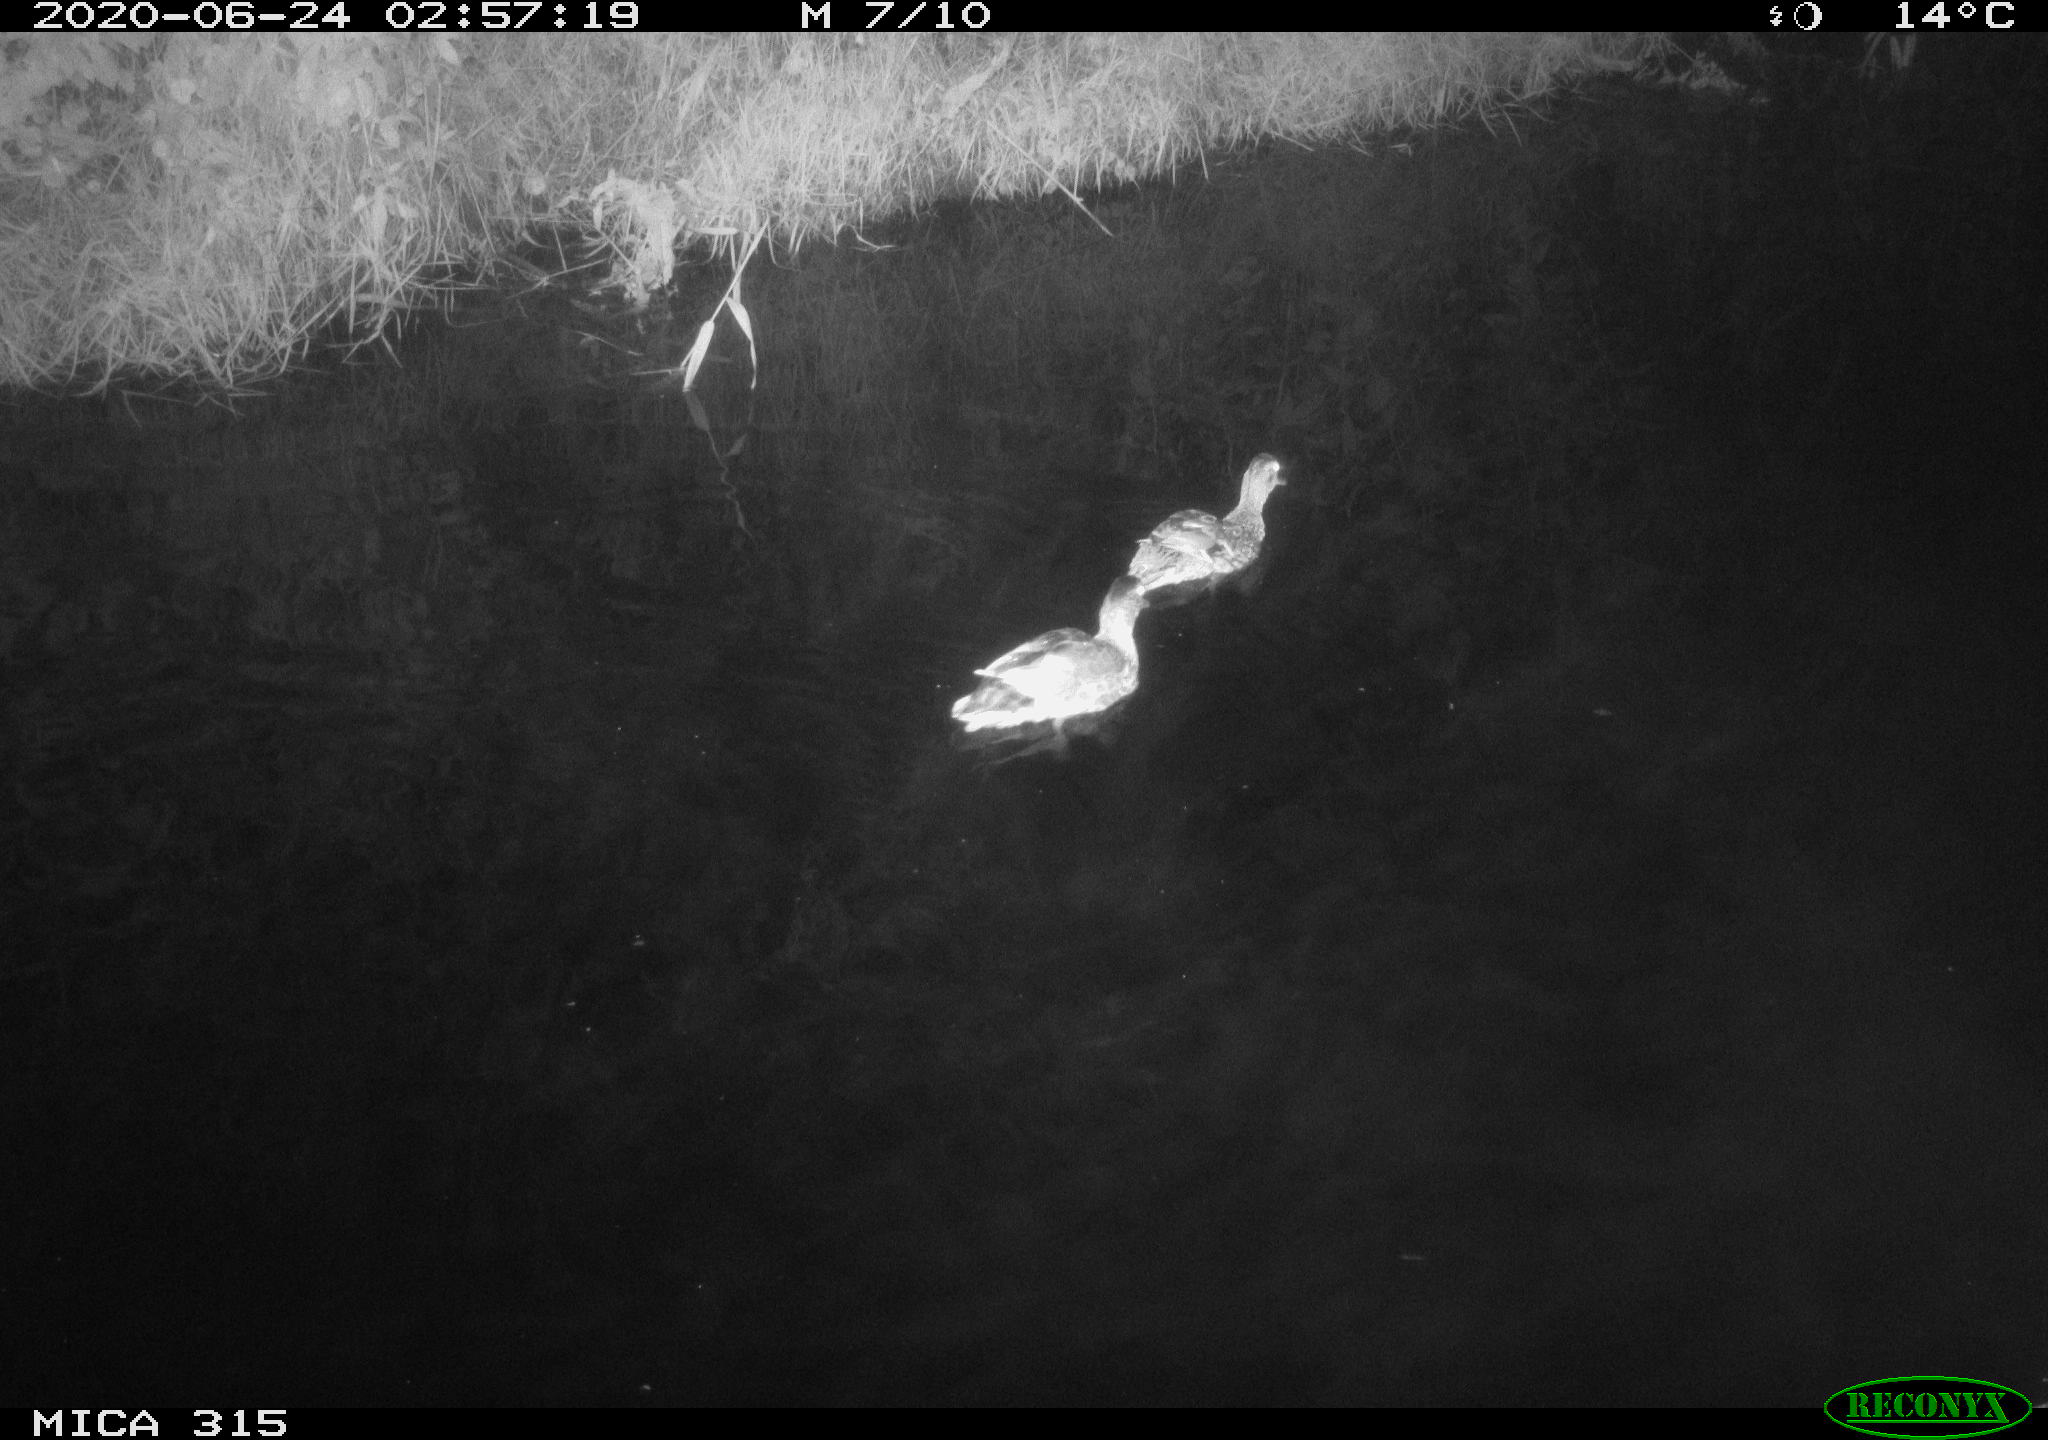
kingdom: Animalia
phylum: Chordata
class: Aves
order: Anseriformes
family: Anatidae
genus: Anas
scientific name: Anas platyrhynchos
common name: Mallard
